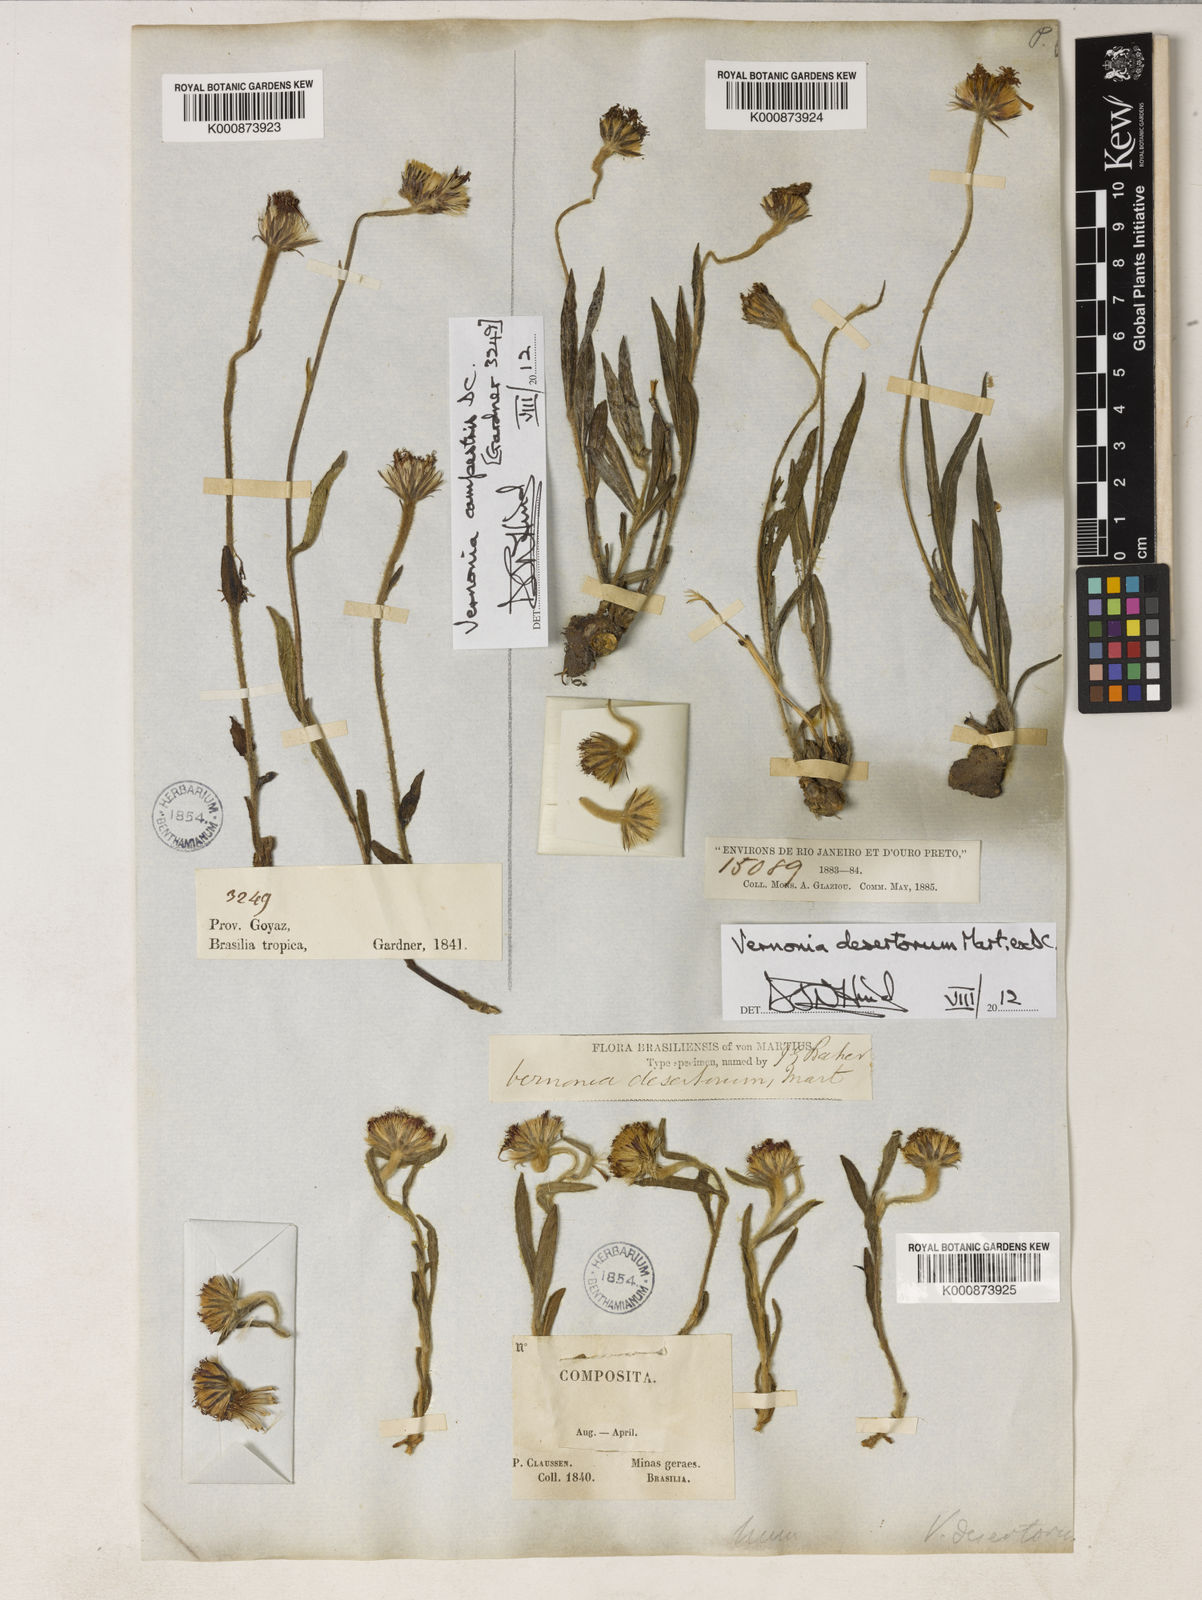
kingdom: Plantae
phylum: Tracheophyta
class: Magnoliopsida
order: Asterales
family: Asteraceae
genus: Chrysolaena
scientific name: Chrysolaena desertorum
